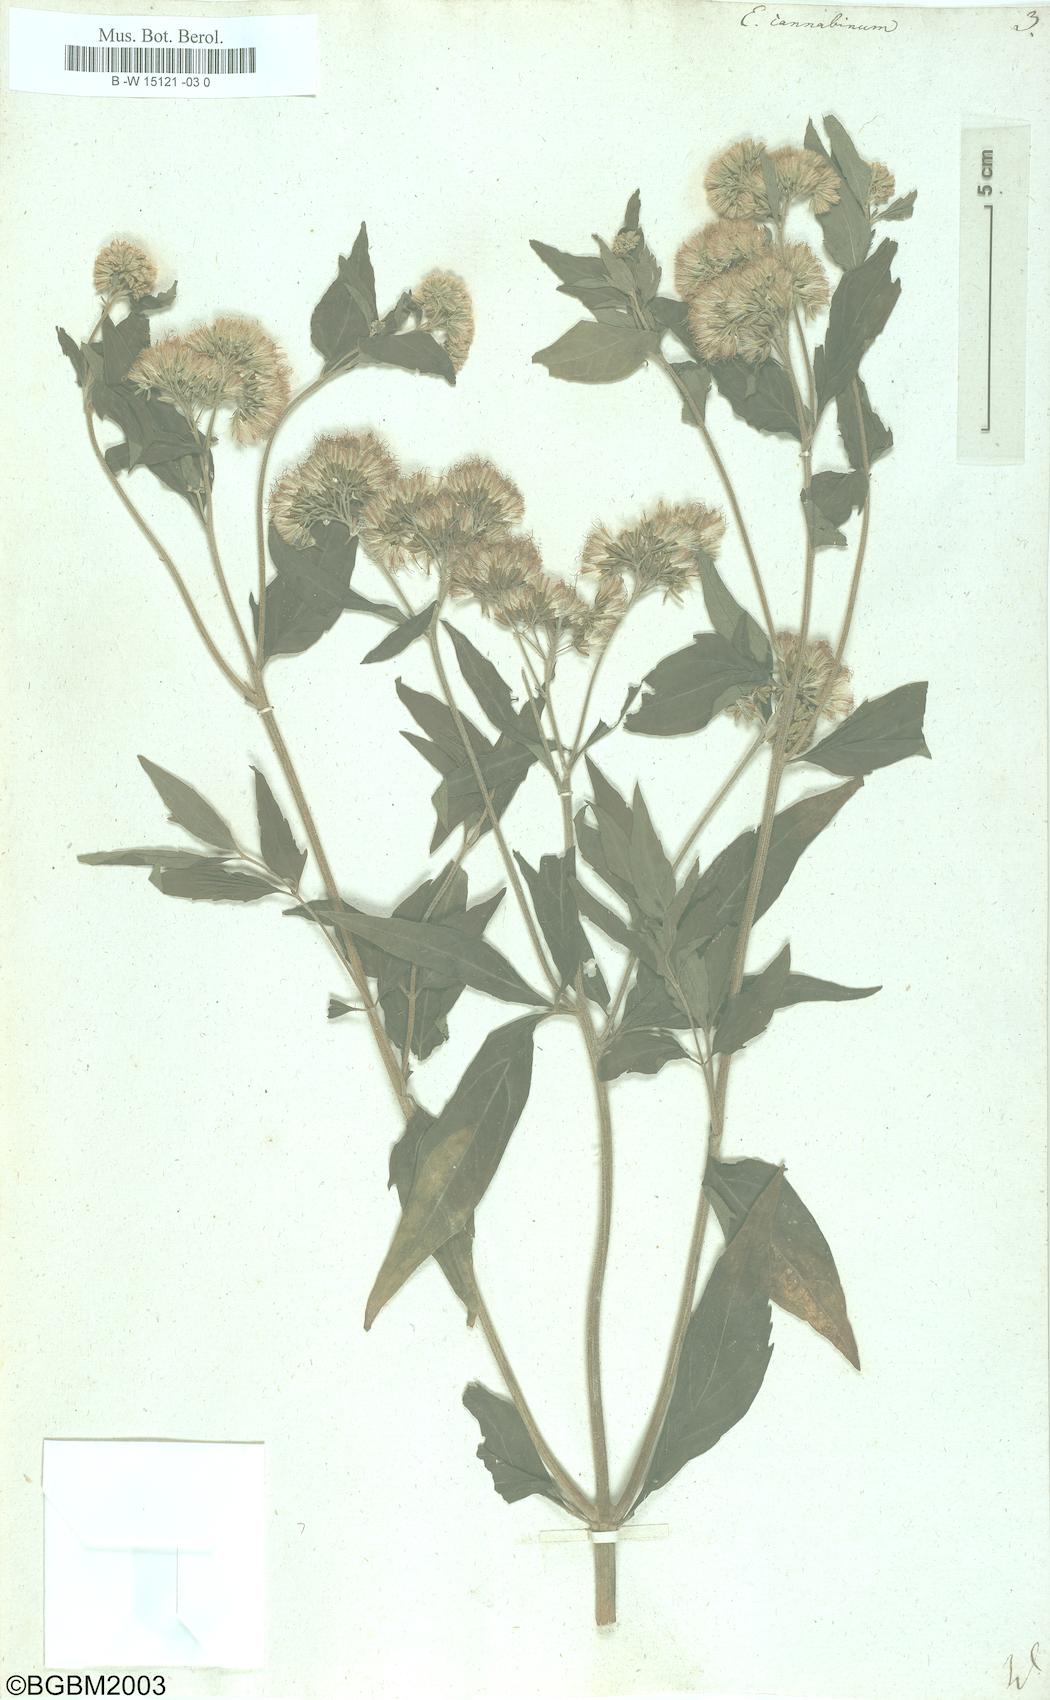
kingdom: Plantae
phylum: Tracheophyta
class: Magnoliopsida
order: Asterales
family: Asteraceae
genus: Eupatorium
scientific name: Eupatorium cannabinum
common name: Hemp-agrimony
